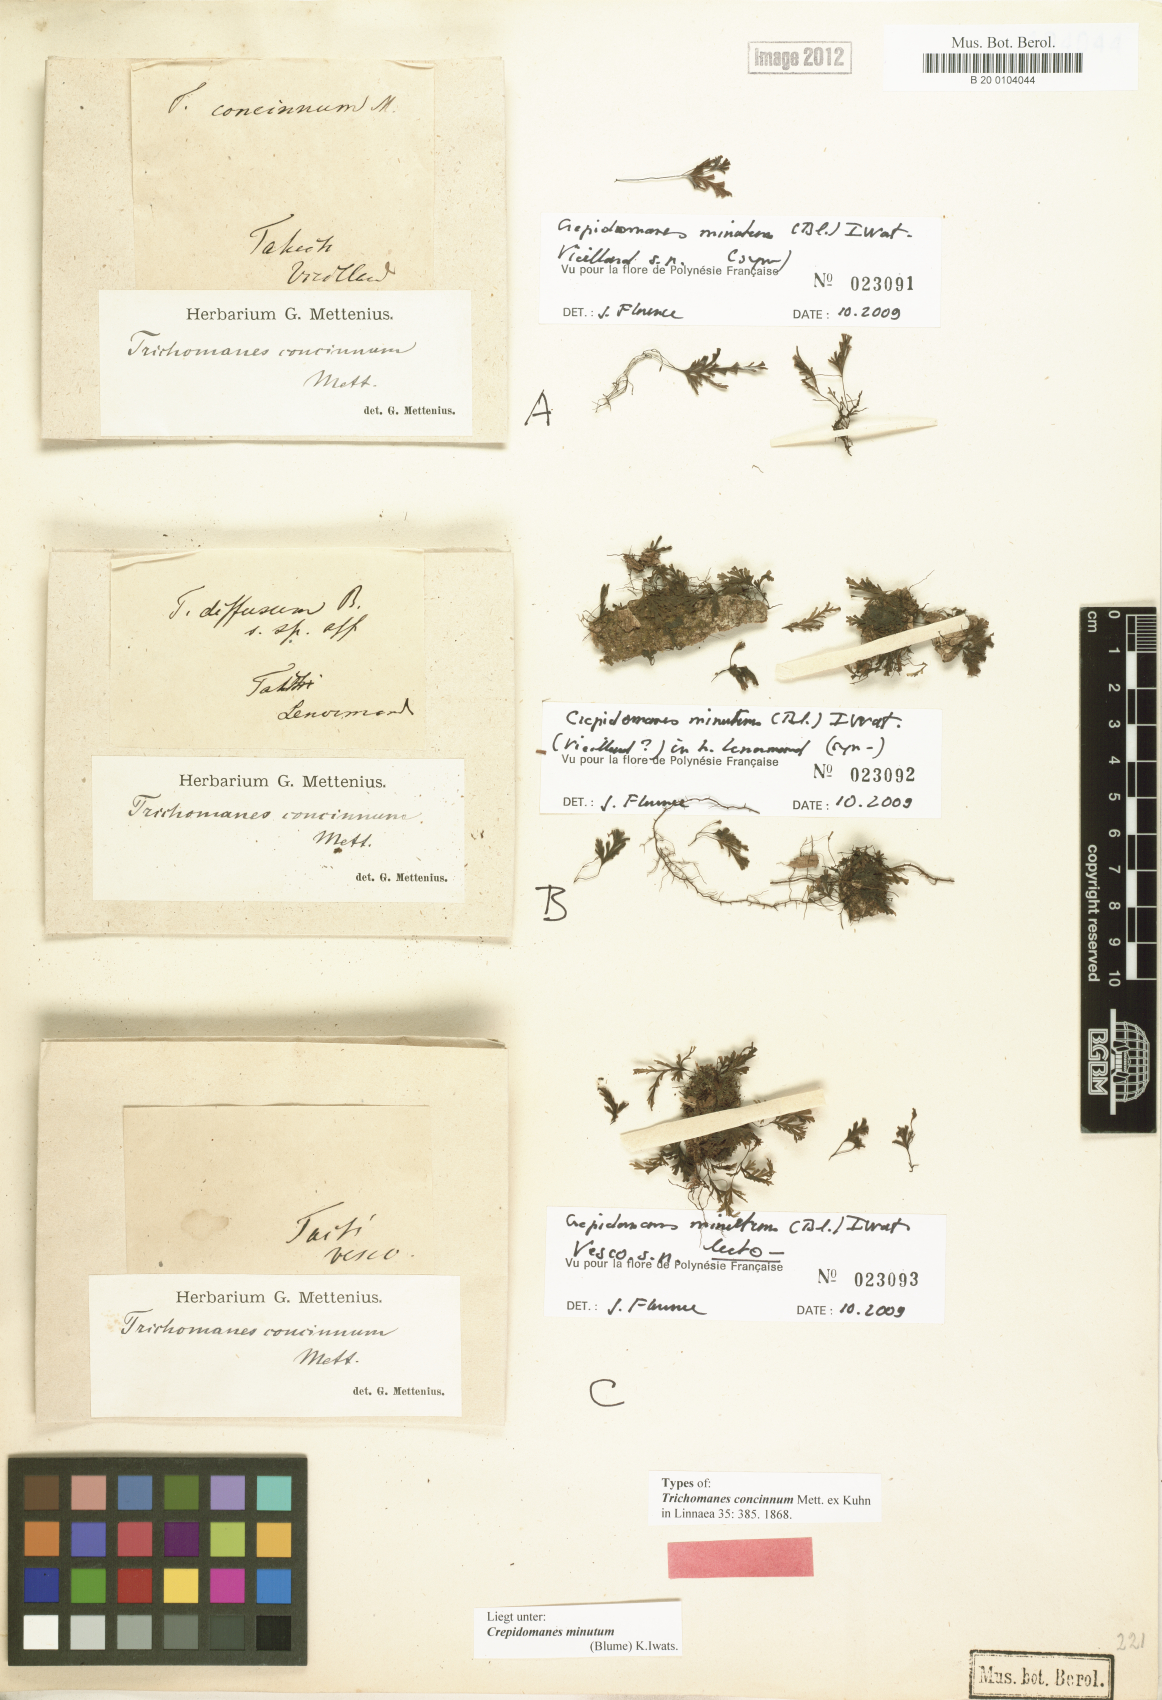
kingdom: Plantae
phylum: Tracheophyta
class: Polypodiopsida
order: Hymenophyllales
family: Hymenophyllaceae
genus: Crepidomanes
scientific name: Crepidomanes parvulum
